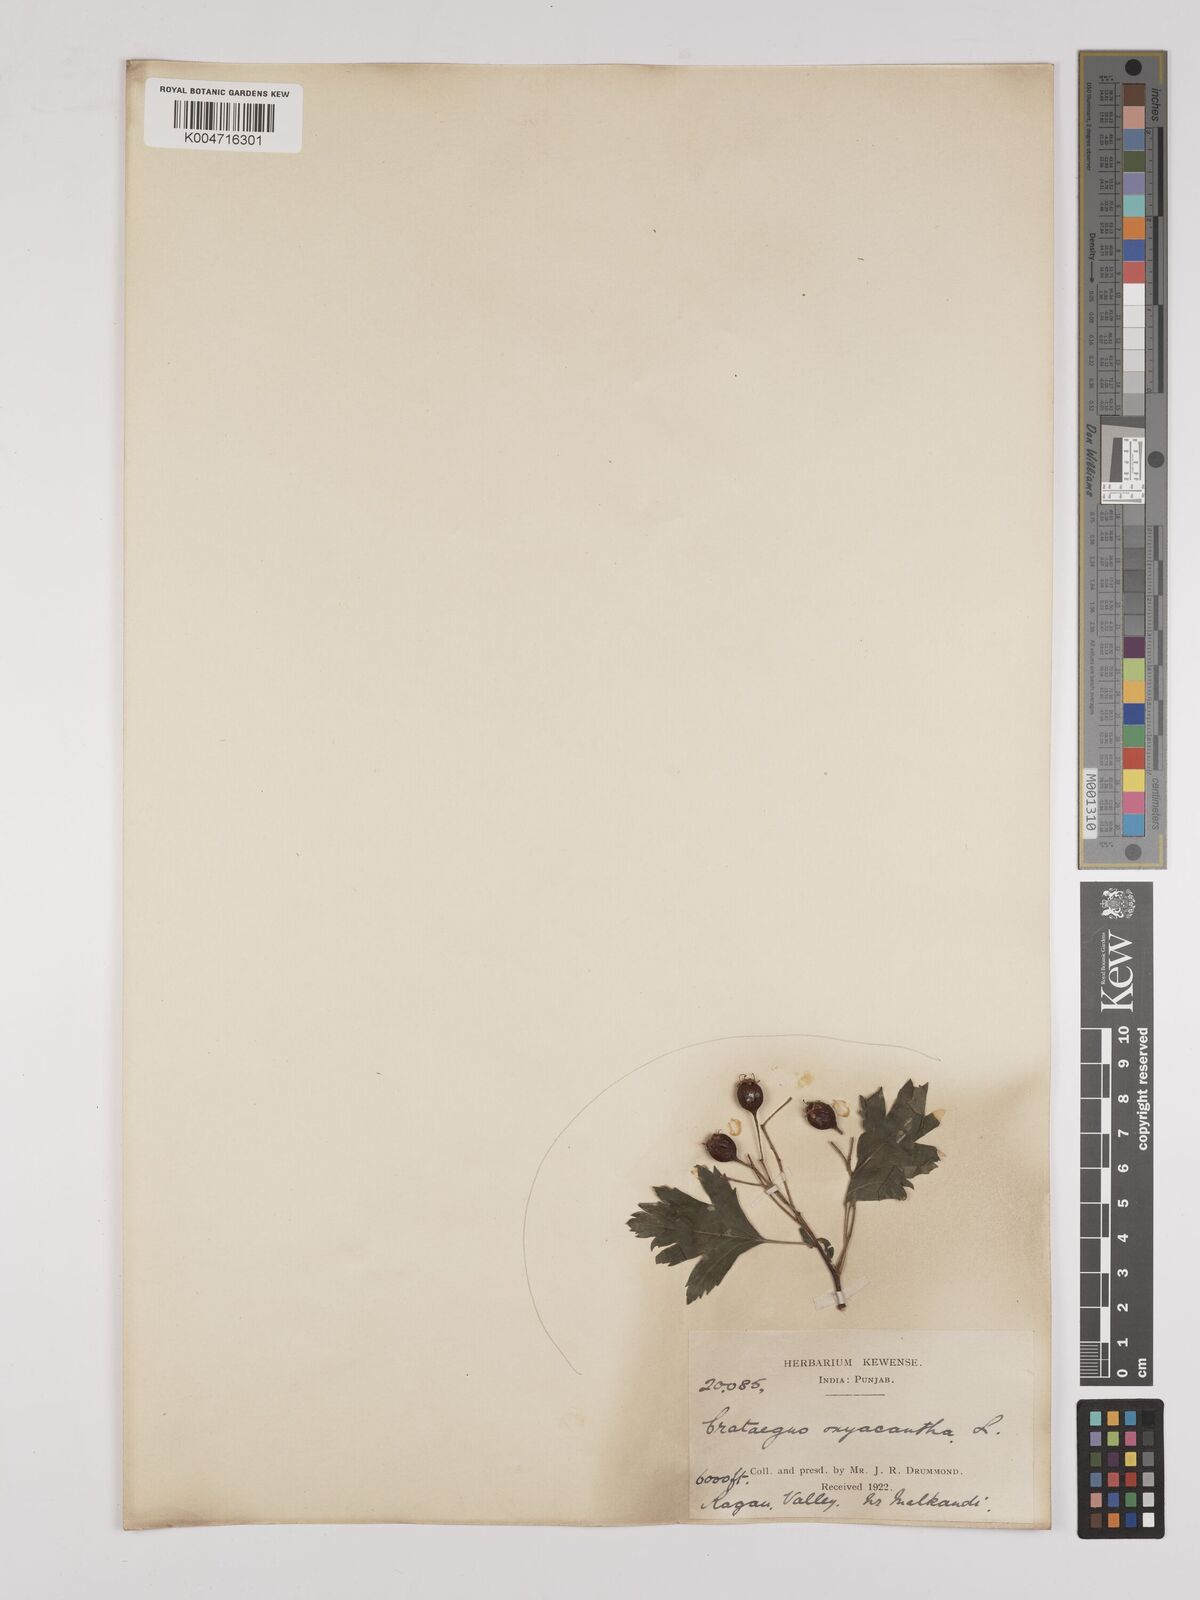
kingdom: Plantae
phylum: Tracheophyta
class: Magnoliopsida
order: Rosales
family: Rosaceae
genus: Crataegus
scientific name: Crataegus monogyna
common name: Hawthorn
